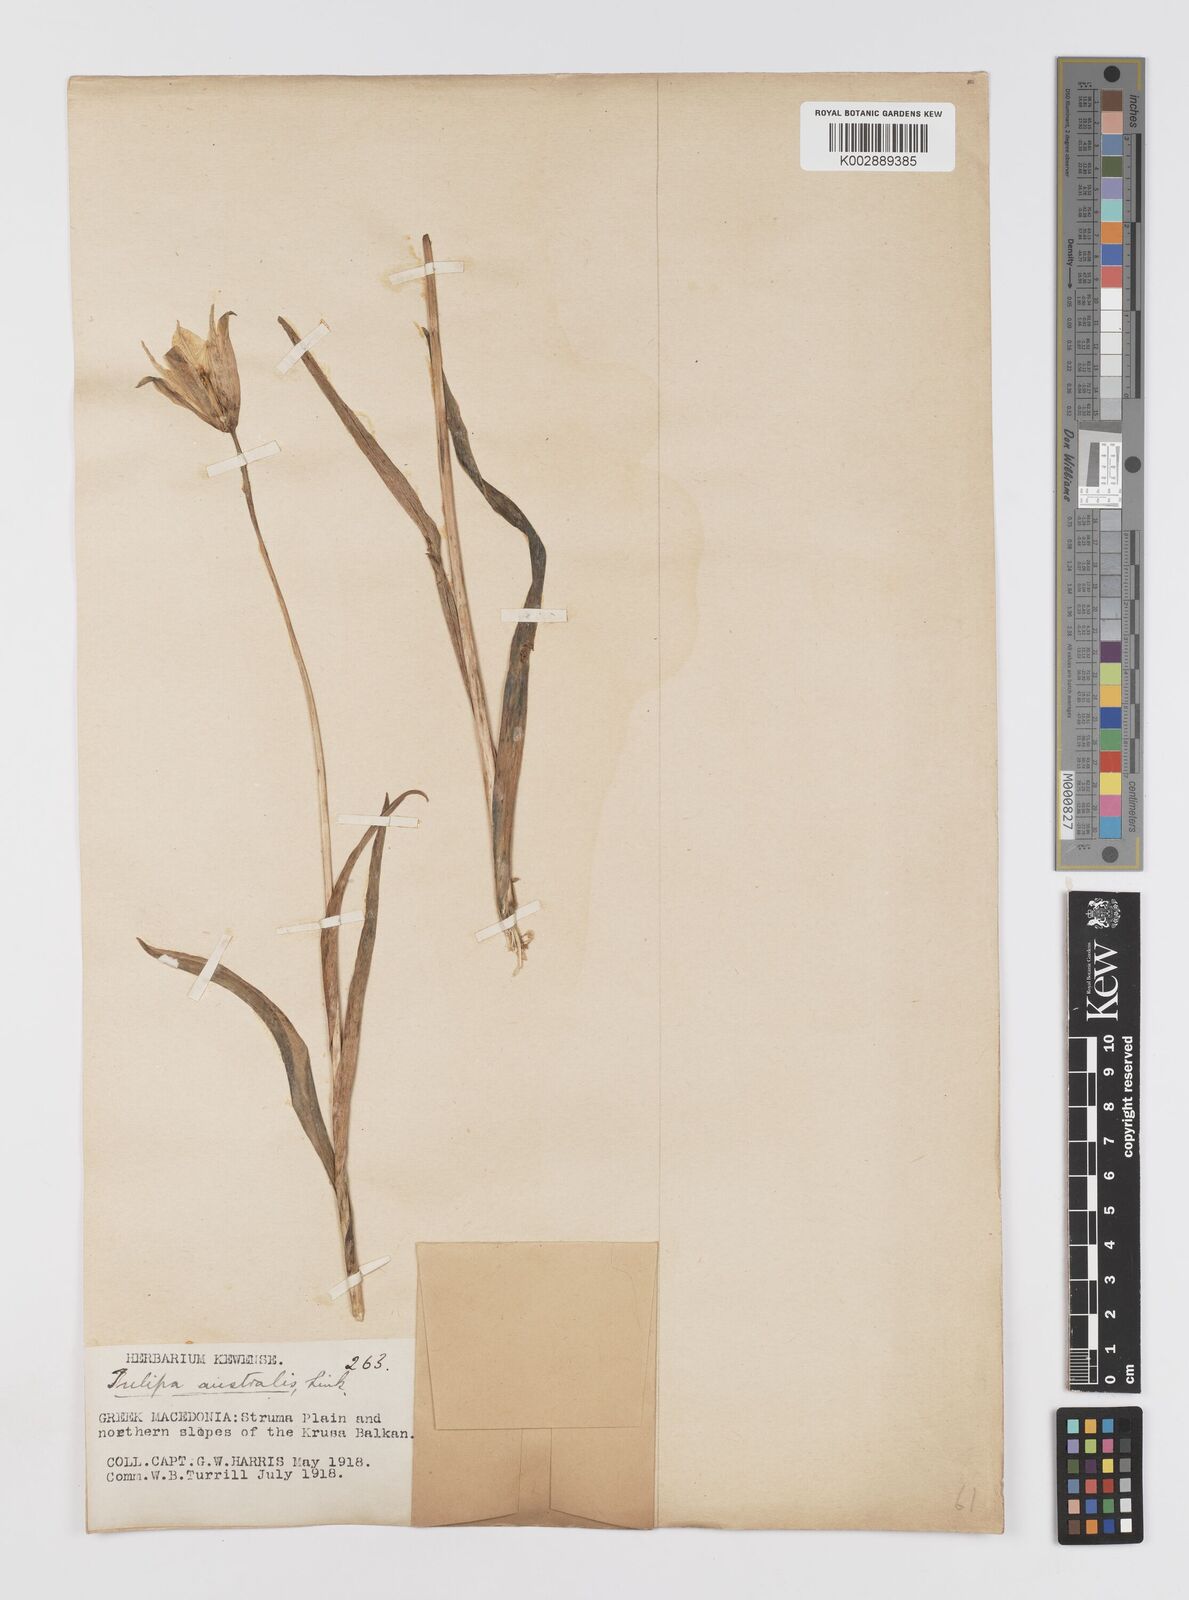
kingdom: Plantae
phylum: Tracheophyta
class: Liliopsida
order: Liliales
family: Liliaceae
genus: Tulipa
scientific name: Tulipa sylvestris
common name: Wild tulip
